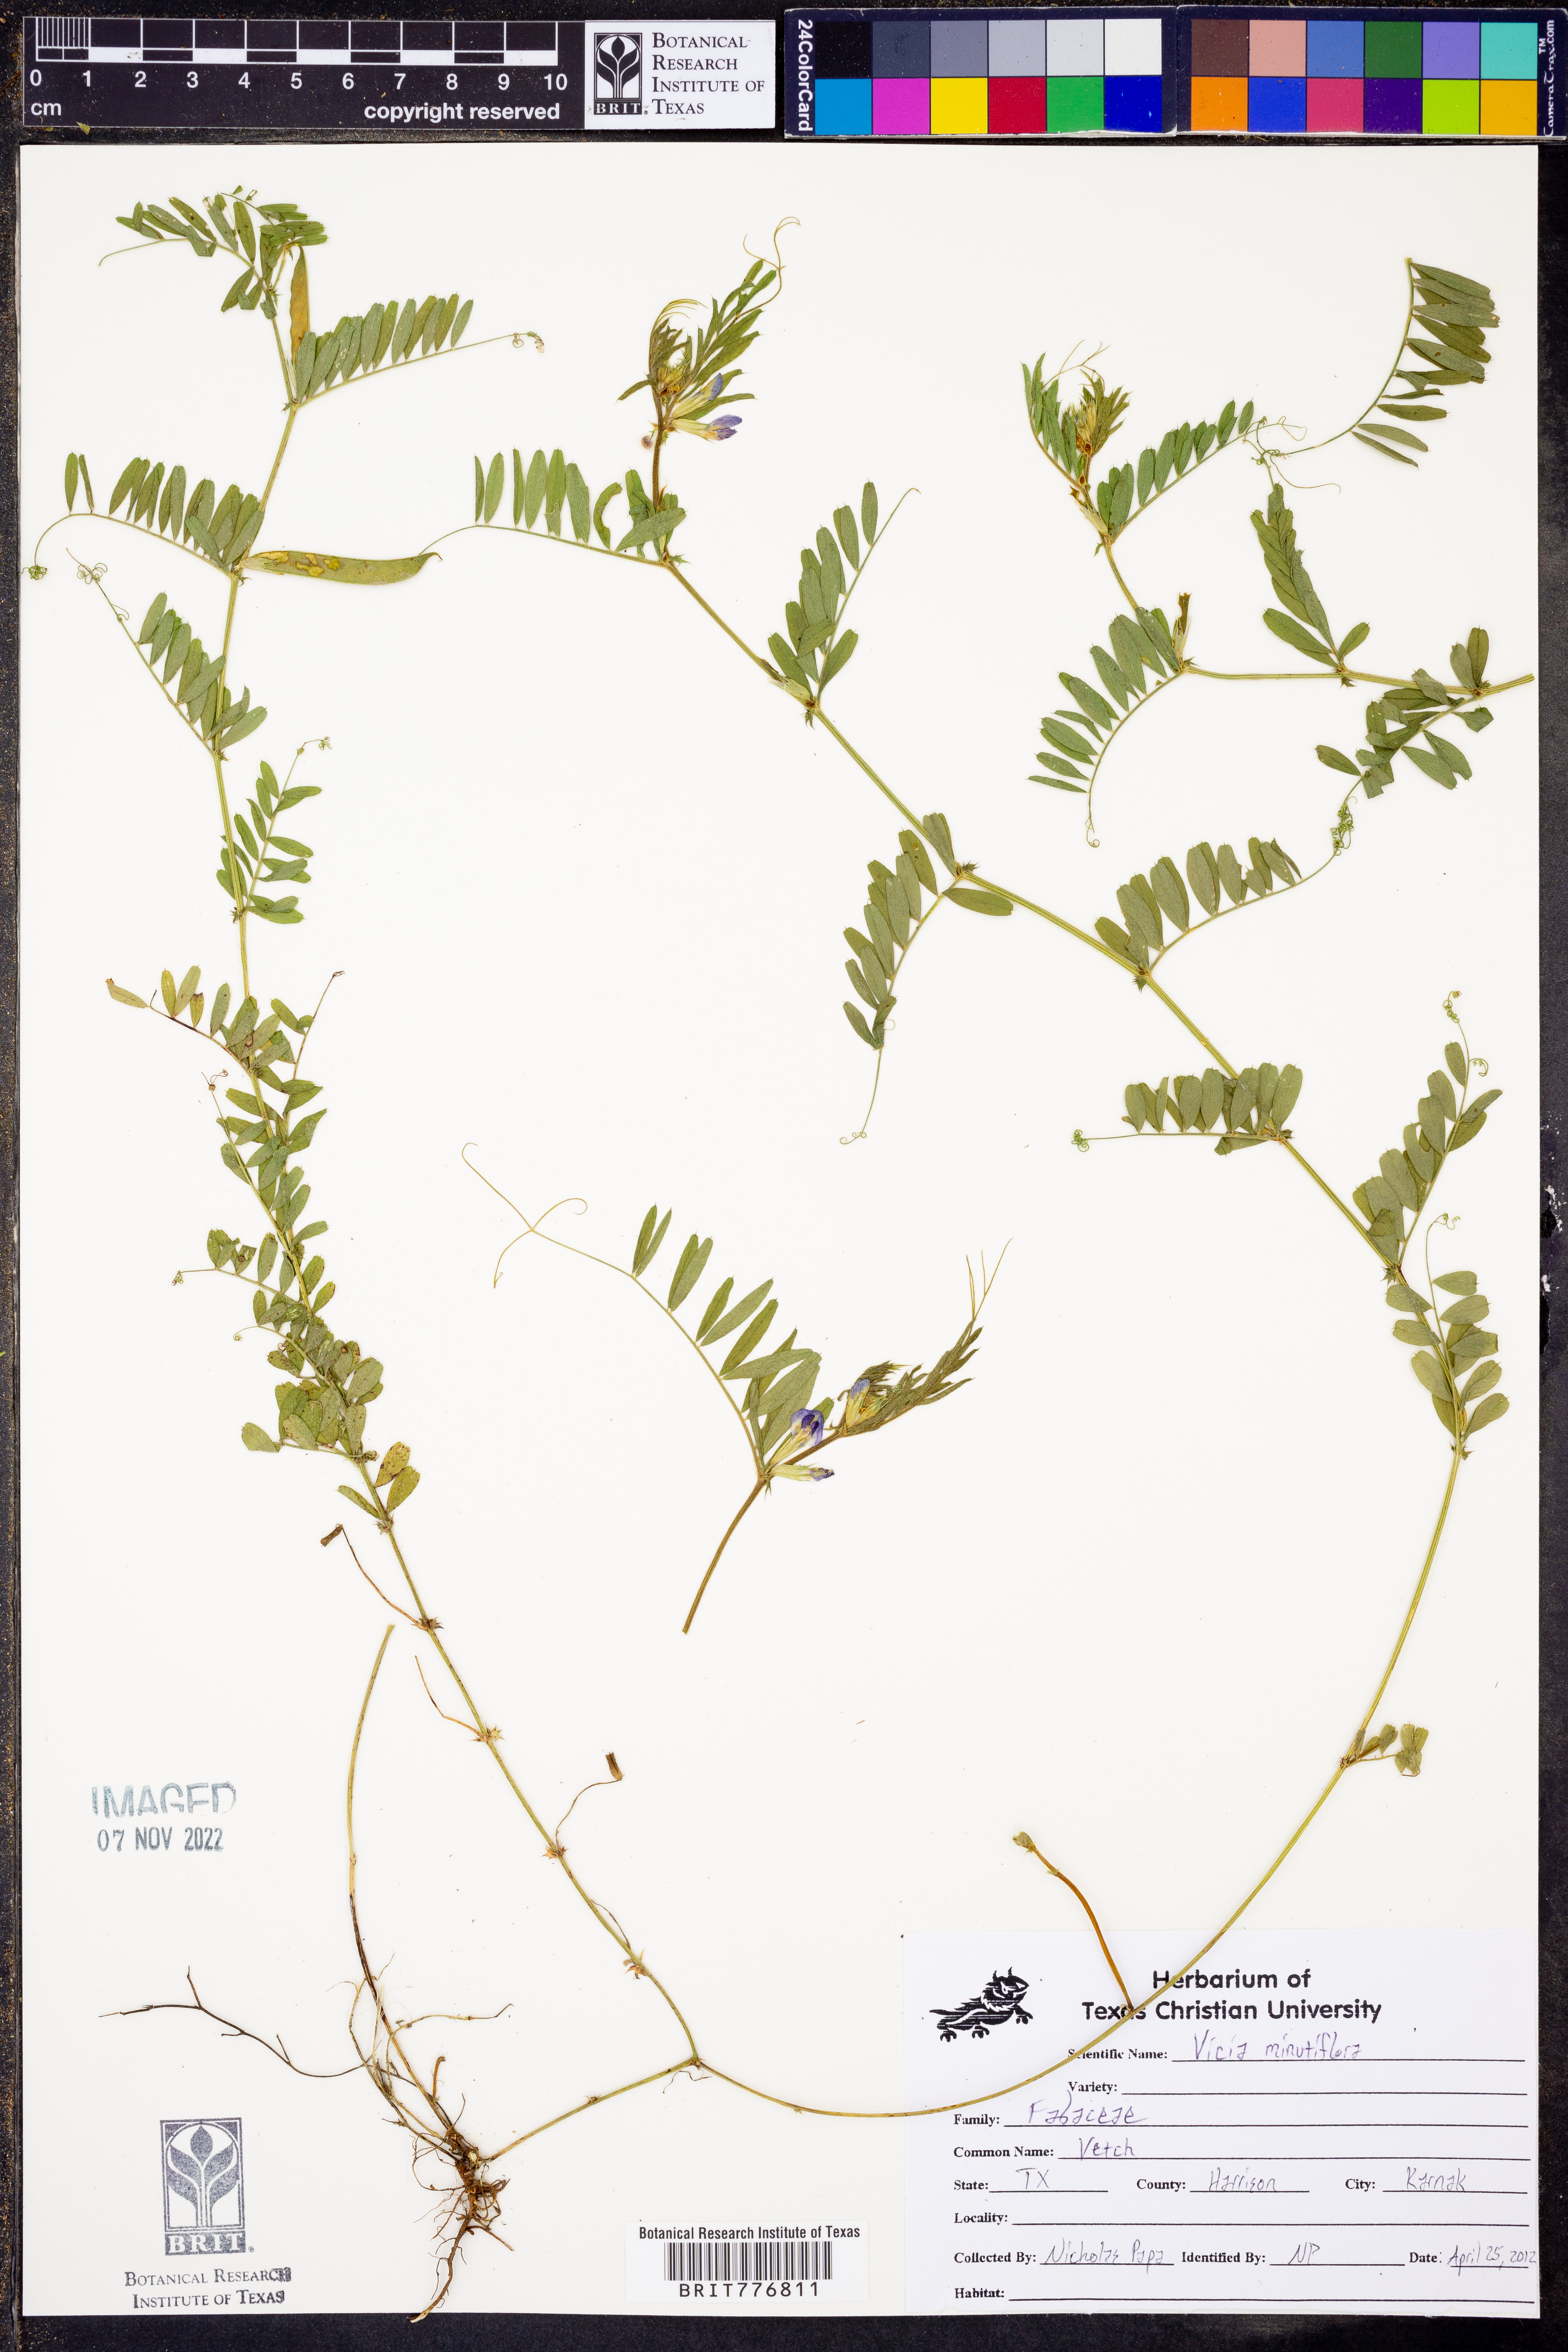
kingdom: Plantae
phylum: Tracheophyta
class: Magnoliopsida
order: Fabales
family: Fabaceae
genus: Vicia
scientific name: Vicia minutiflora
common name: Pygmy-flower vetch
